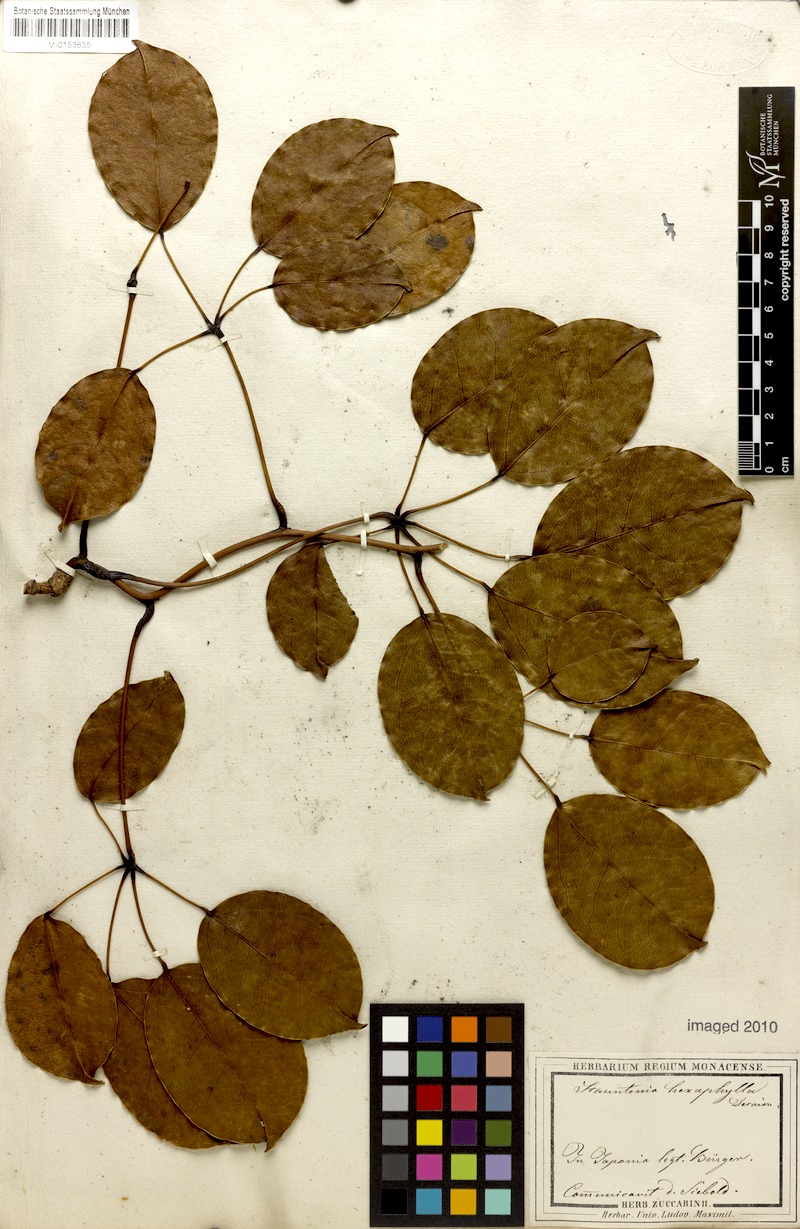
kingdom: Plantae
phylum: Tracheophyta
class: Magnoliopsida
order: Ranunculales
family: Lardizabalaceae
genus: Stauntonia
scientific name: Stauntonia hexaphylla
